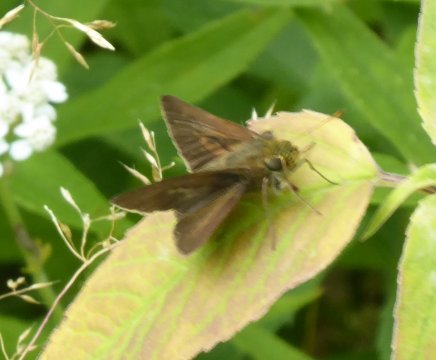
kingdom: Animalia
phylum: Arthropoda
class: Insecta
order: Lepidoptera
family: Hesperiidae
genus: Euphyes
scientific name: Euphyes vestris
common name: Dun Skipper
